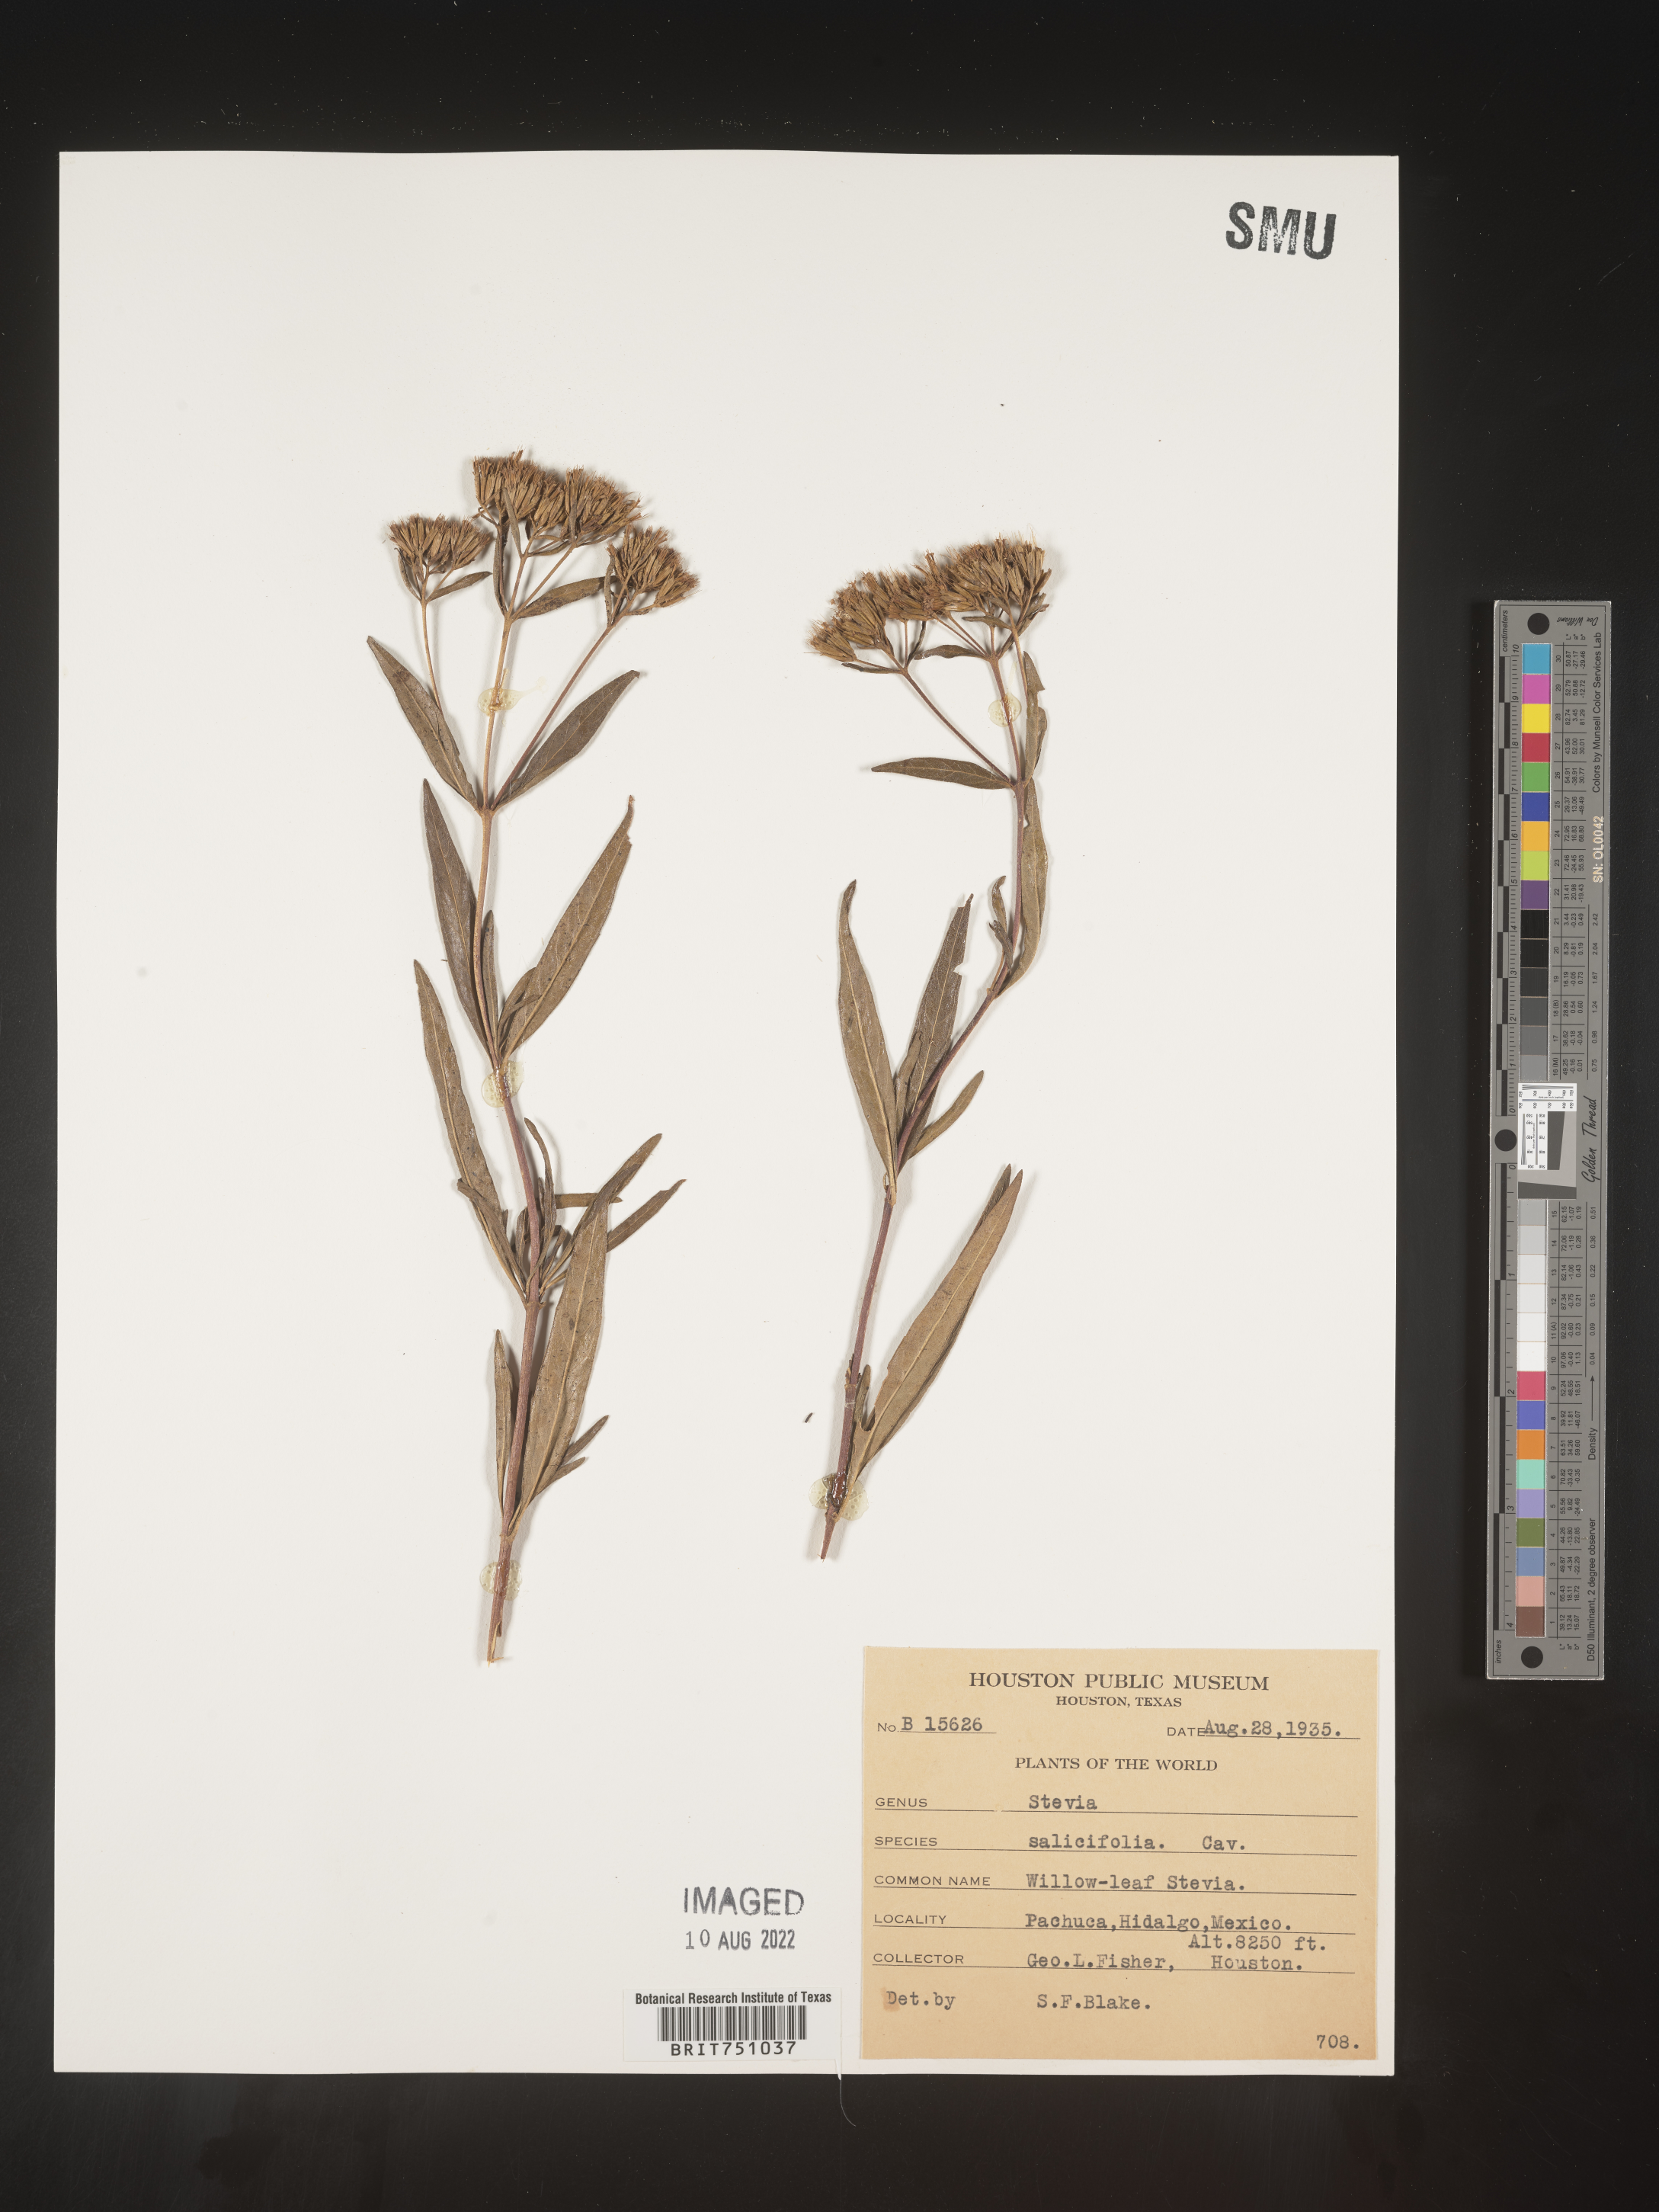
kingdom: Plantae
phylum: Tracheophyta
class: Magnoliopsida
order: Asterales
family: Asteraceae
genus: Stevia
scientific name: Stevia salicifolia
